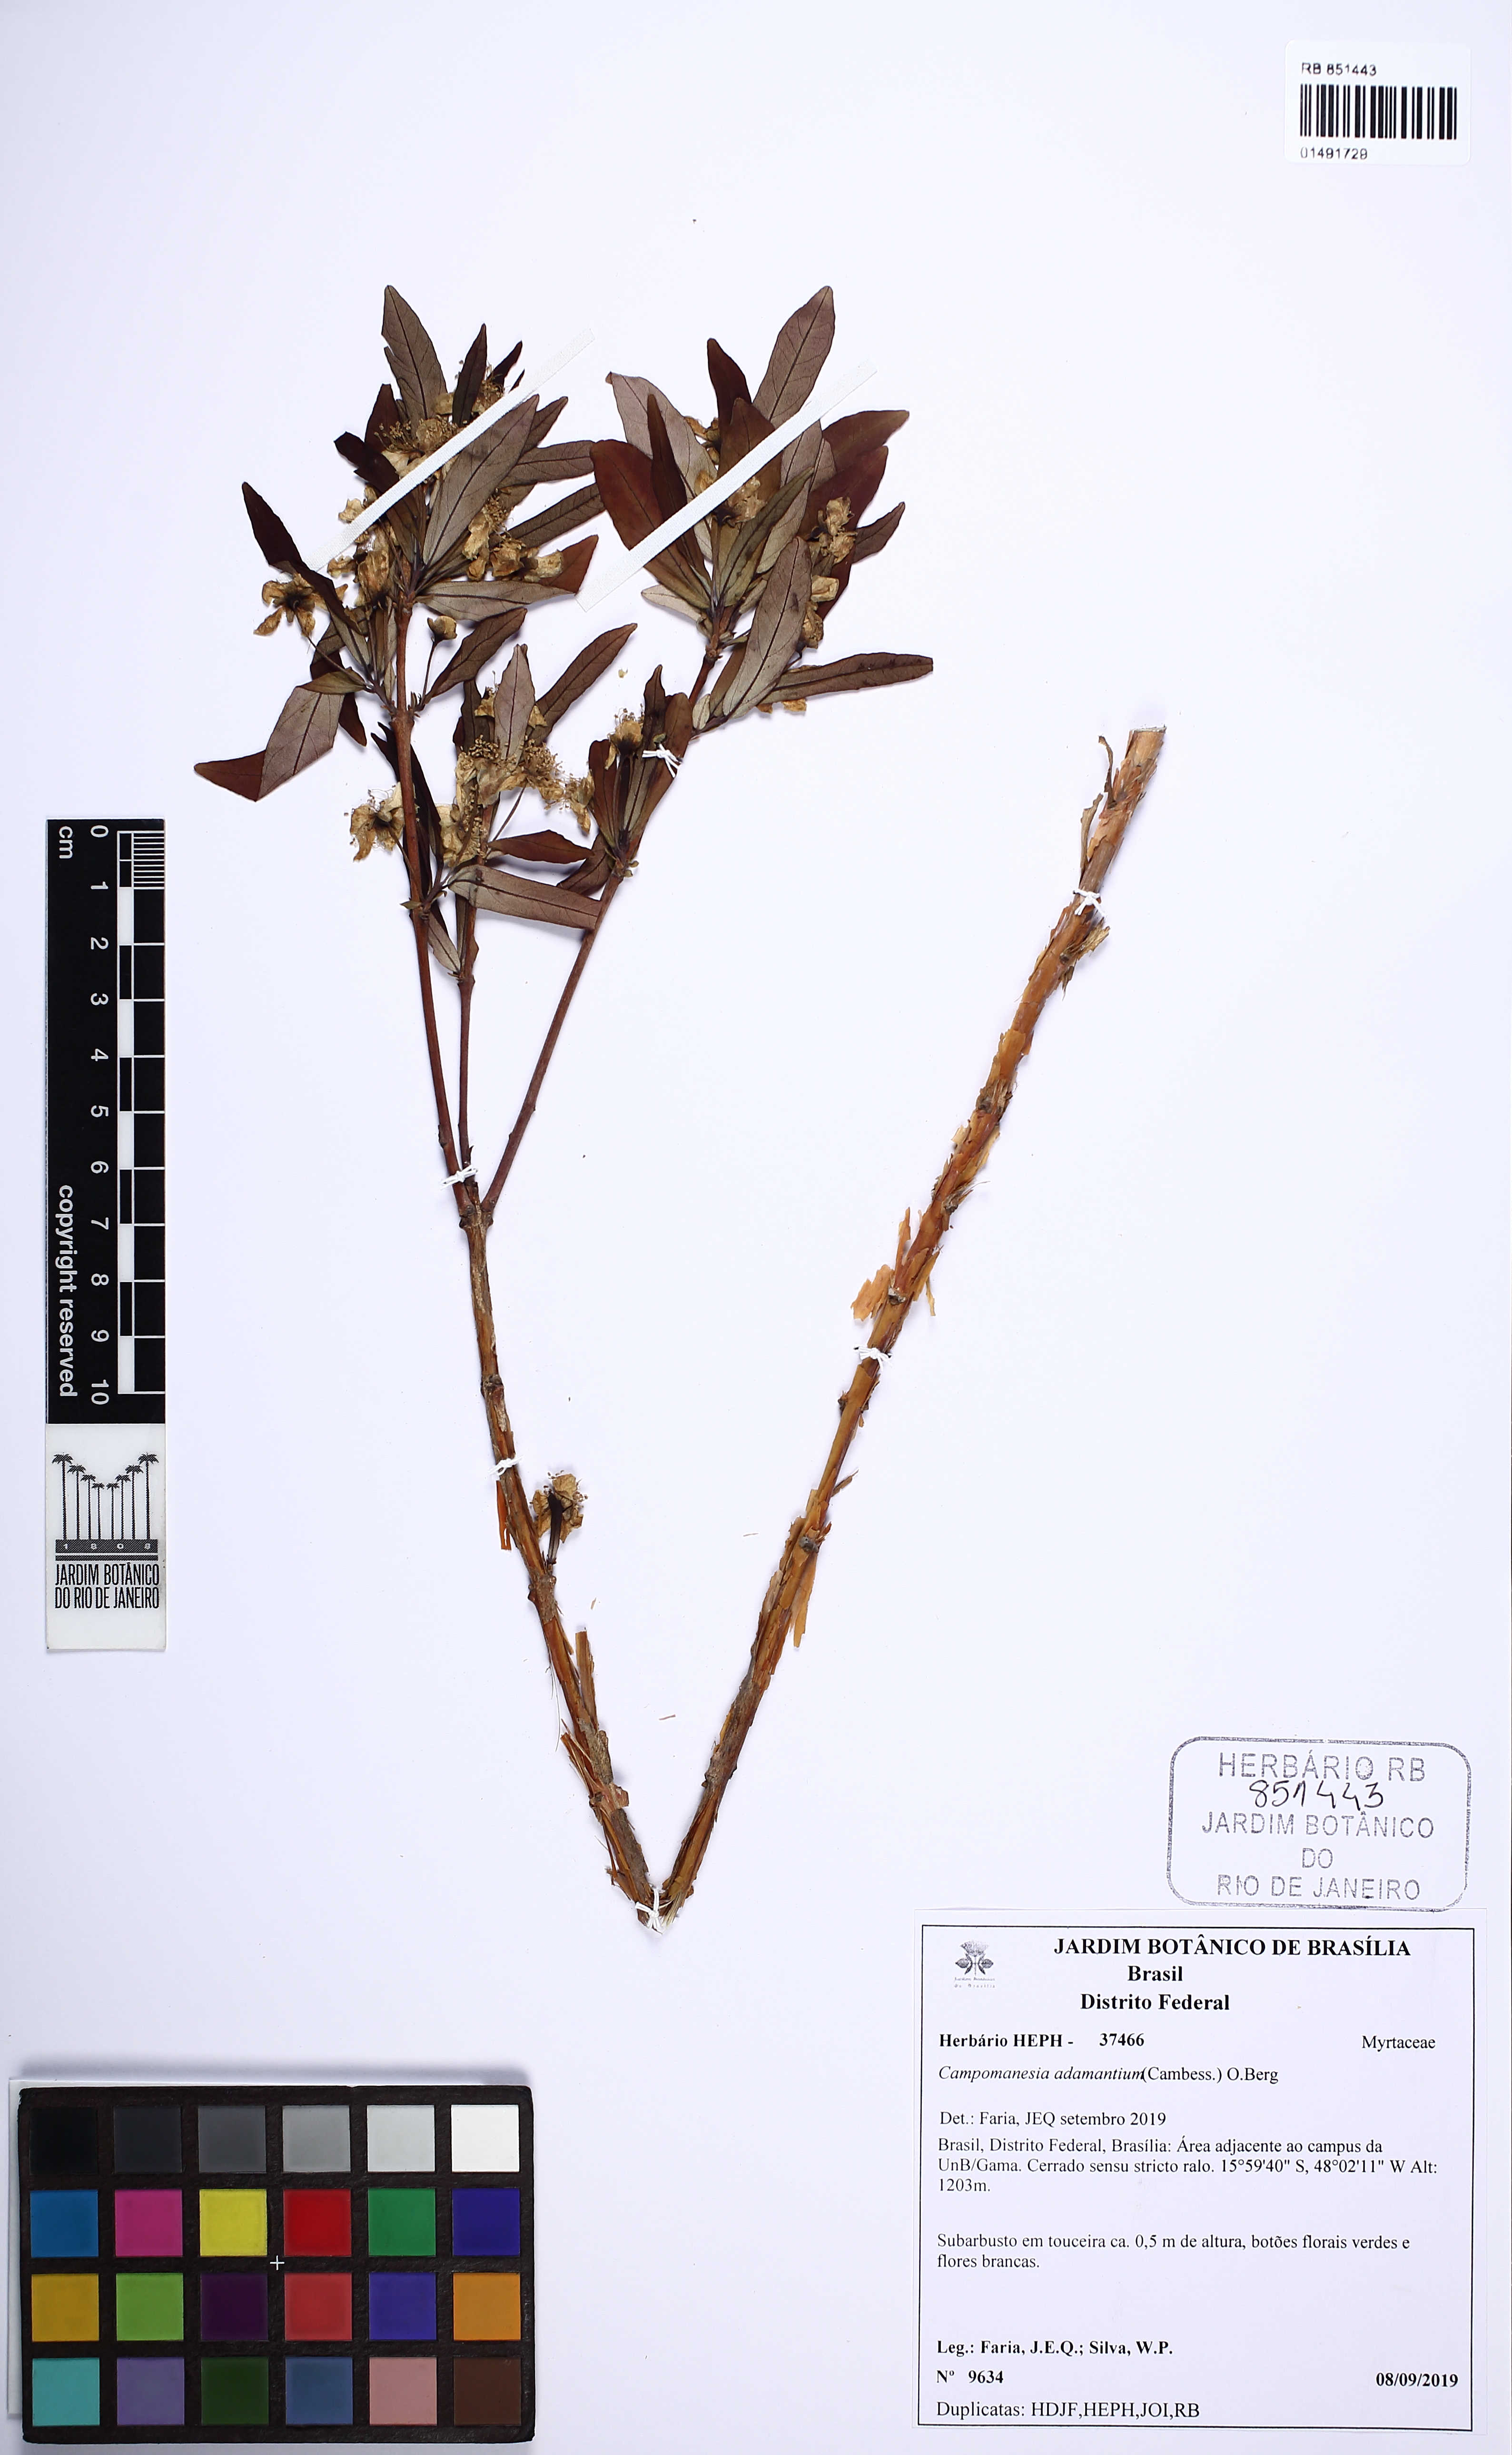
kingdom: Plantae
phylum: Tracheophyta
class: Magnoliopsida
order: Myrtales
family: Myrtaceae
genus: Campomanesia
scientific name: Campomanesia adamantium
